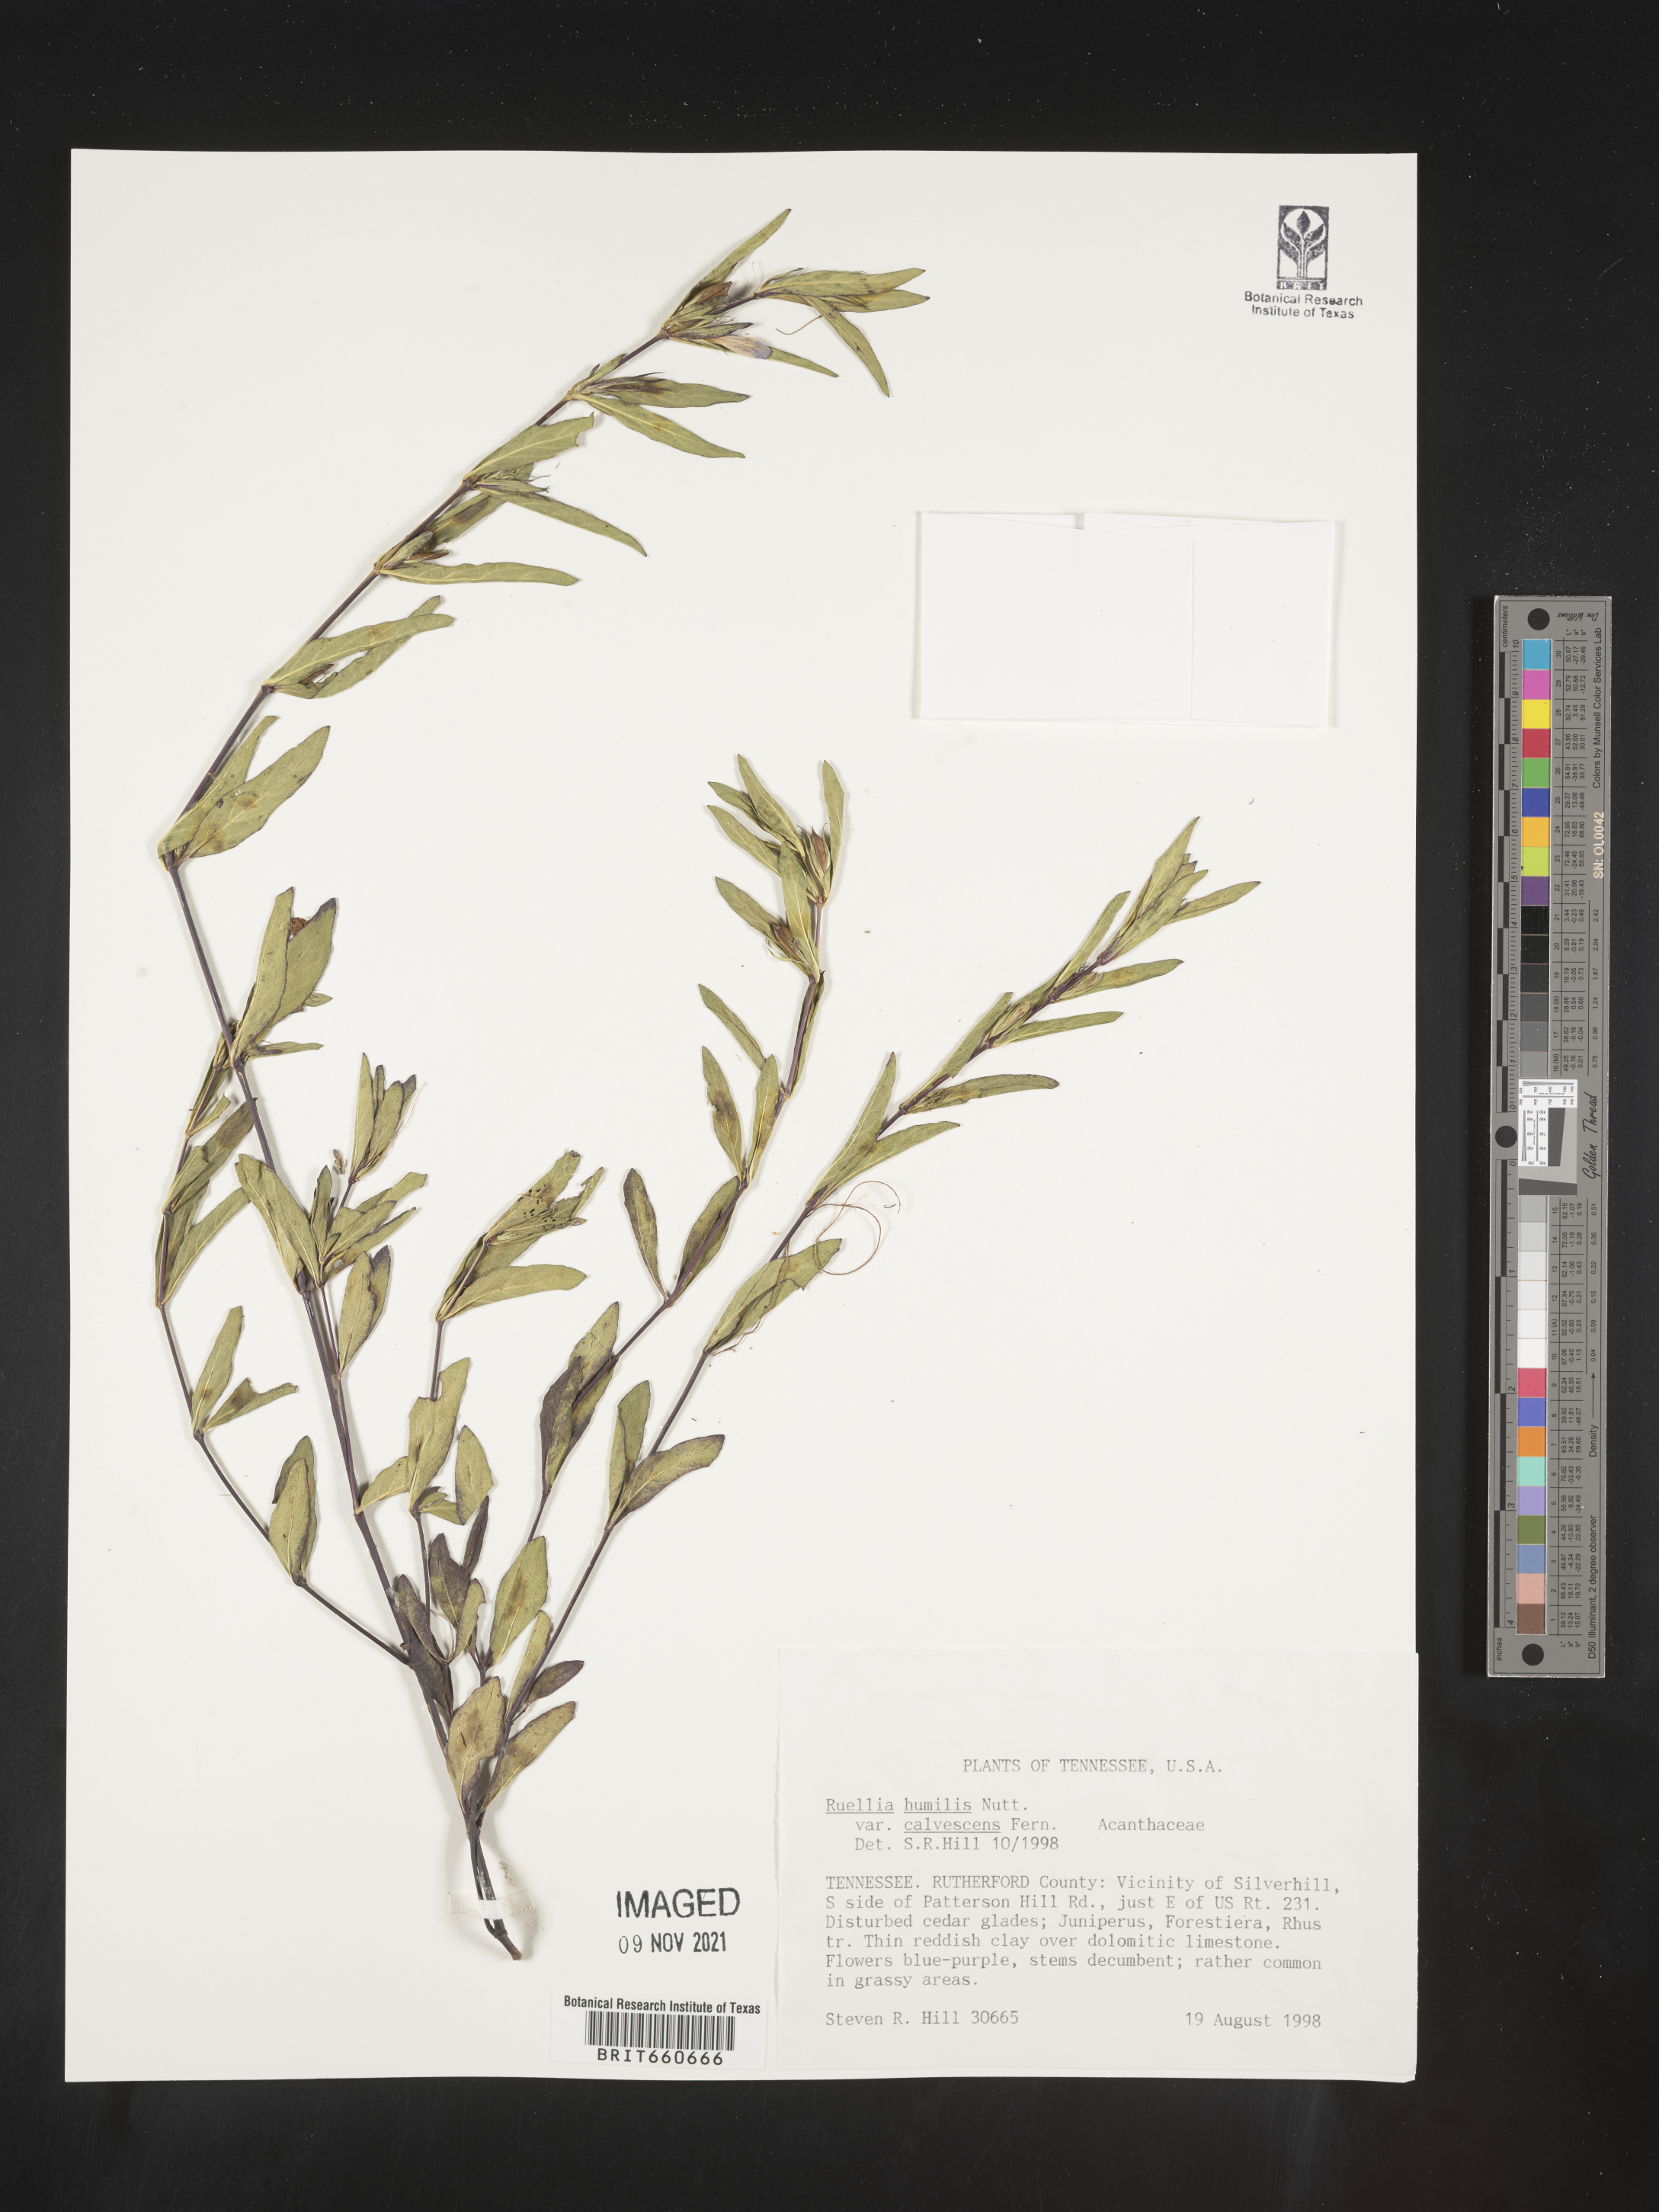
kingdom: Plantae
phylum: Tracheophyta
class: Magnoliopsida
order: Lamiales
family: Acanthaceae
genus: Ruellia
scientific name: Ruellia humilis
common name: Fringe-leaf ruellia
